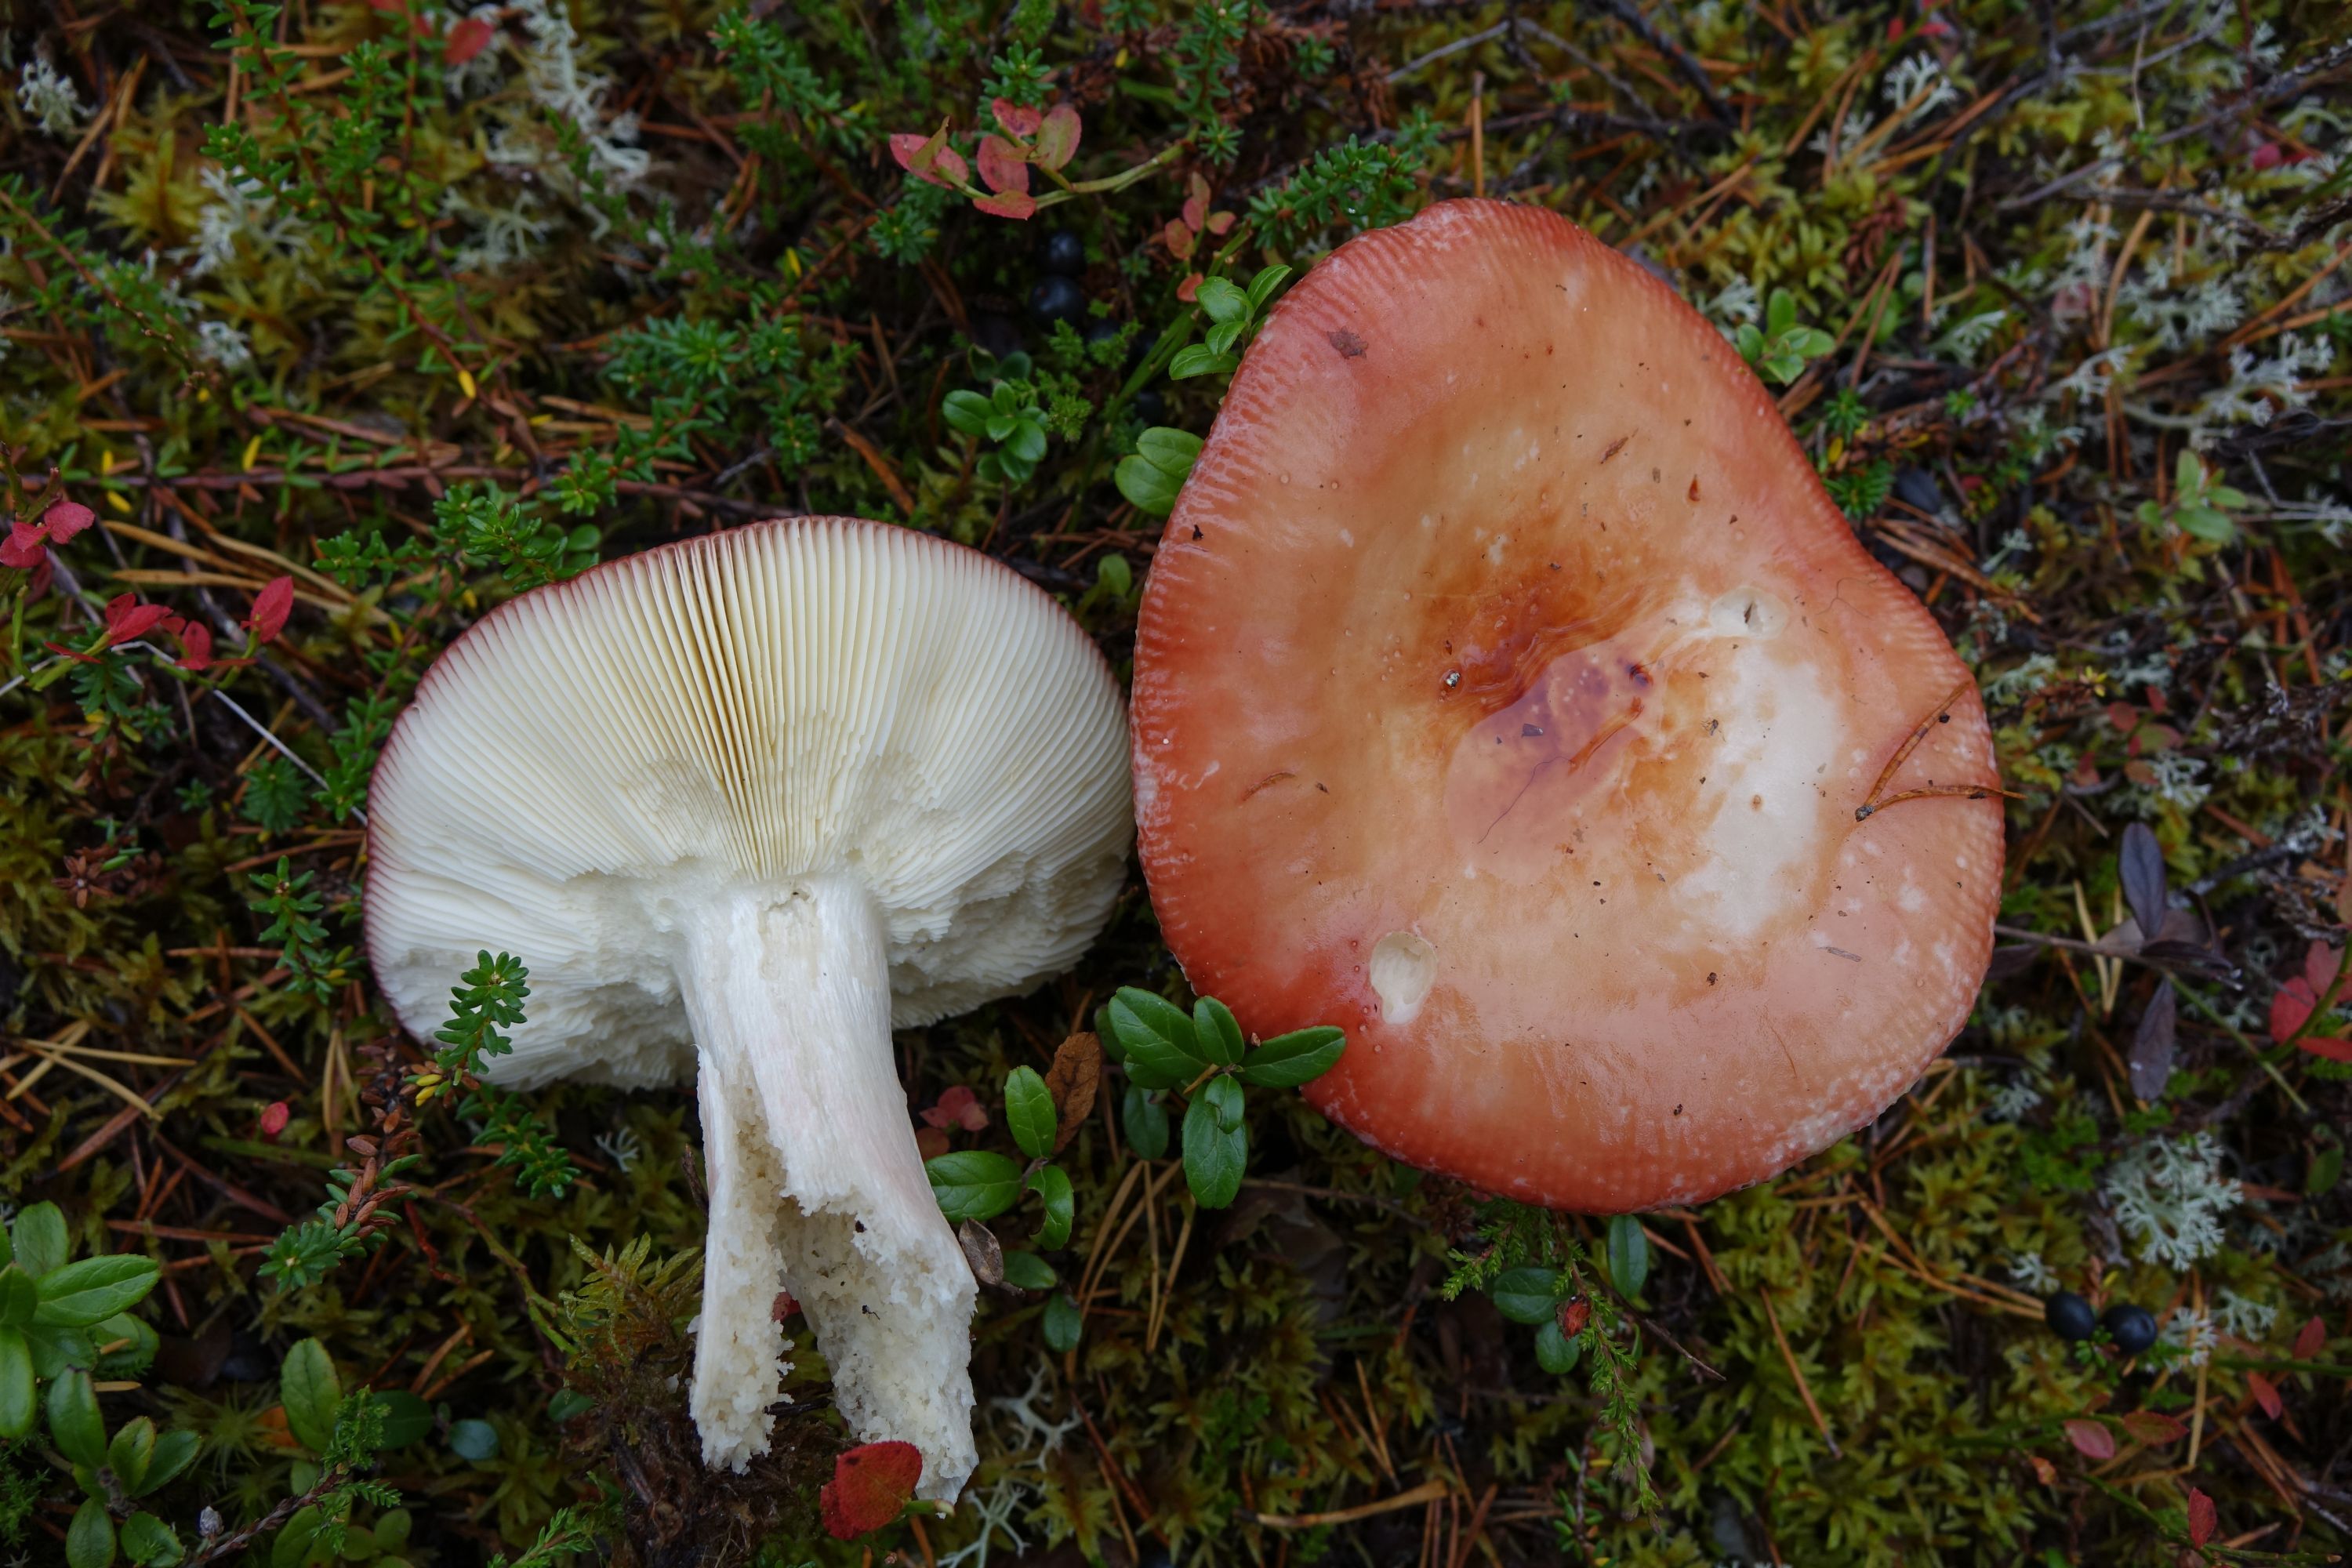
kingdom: Fungi
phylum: Basidiomycota
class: Agaricomycetes
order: Russulales
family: Russulaceae
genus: Russula
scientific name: Russula paludosa
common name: Hintapink
